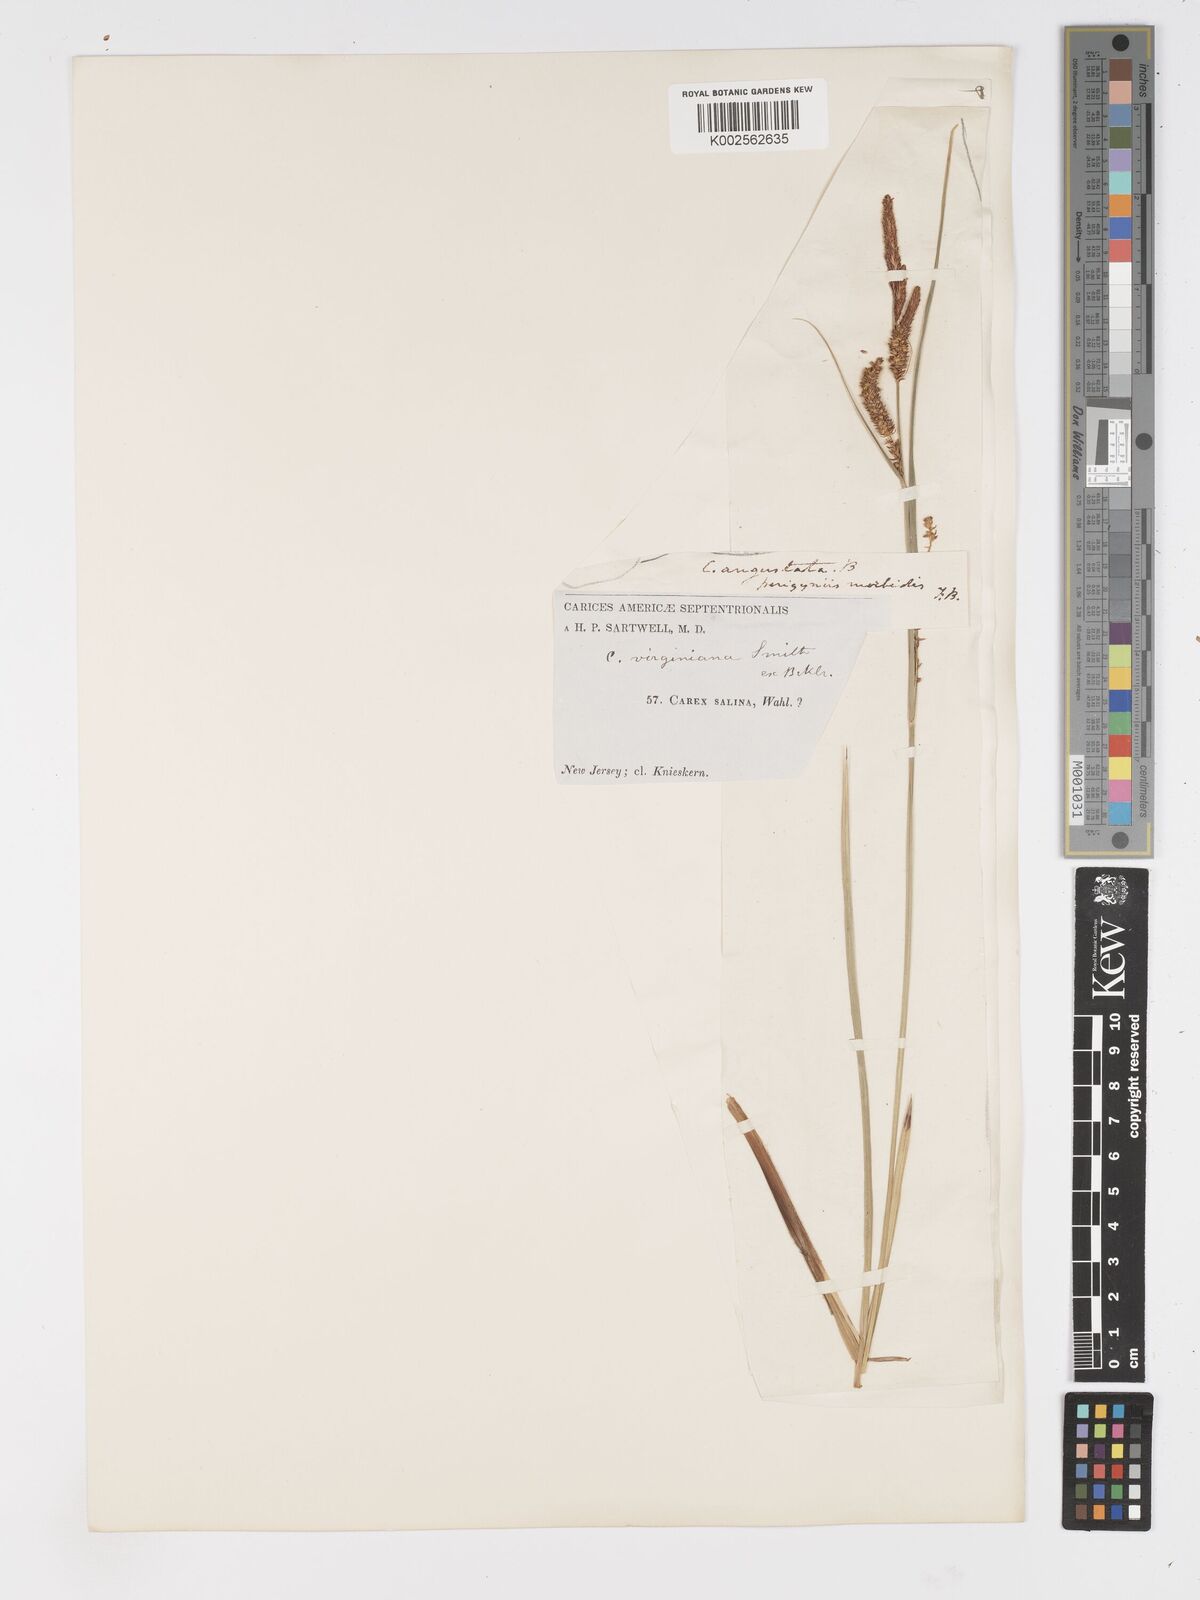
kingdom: Plantae
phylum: Tracheophyta
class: Liliopsida
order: Poales
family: Cyperaceae
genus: Carex
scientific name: Carex stricta
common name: Hummock sedge
